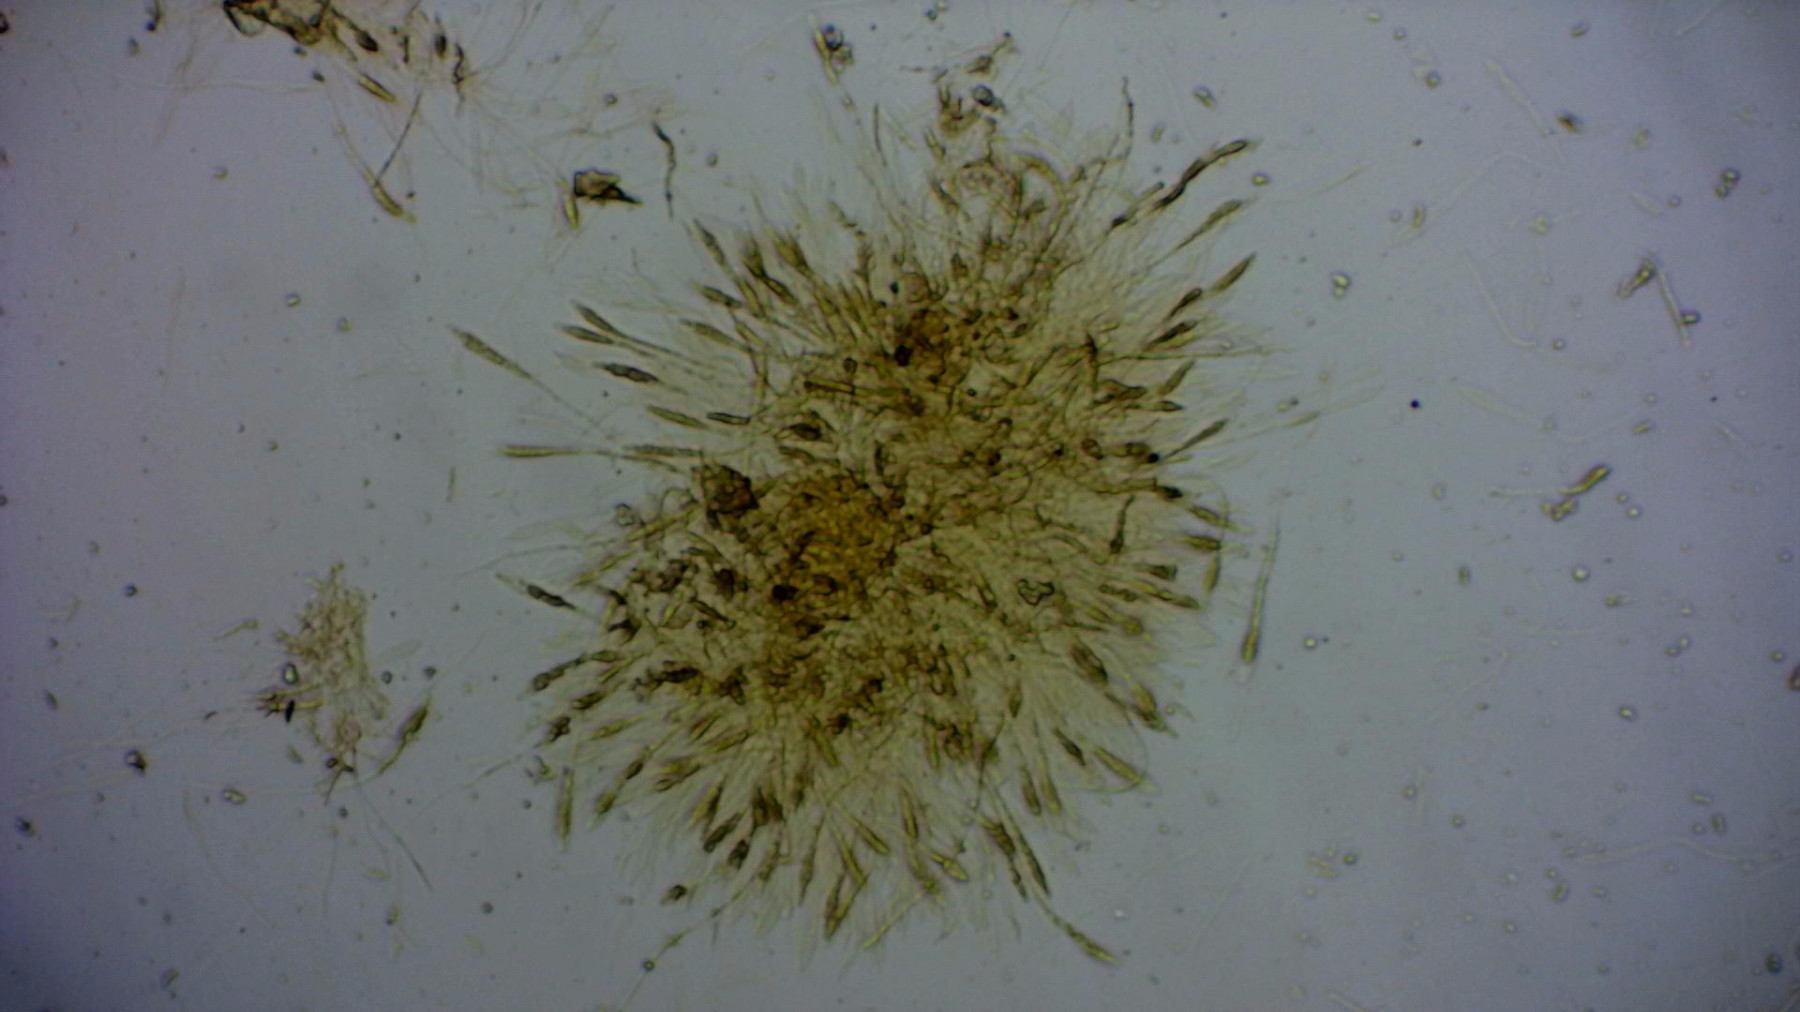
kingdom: Fungi
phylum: Ascomycota
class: Sordariomycetes
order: Xylariales
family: Diatrypaceae
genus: Diatrype
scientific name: Diatrype disciformis
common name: kant-kulskorpe
